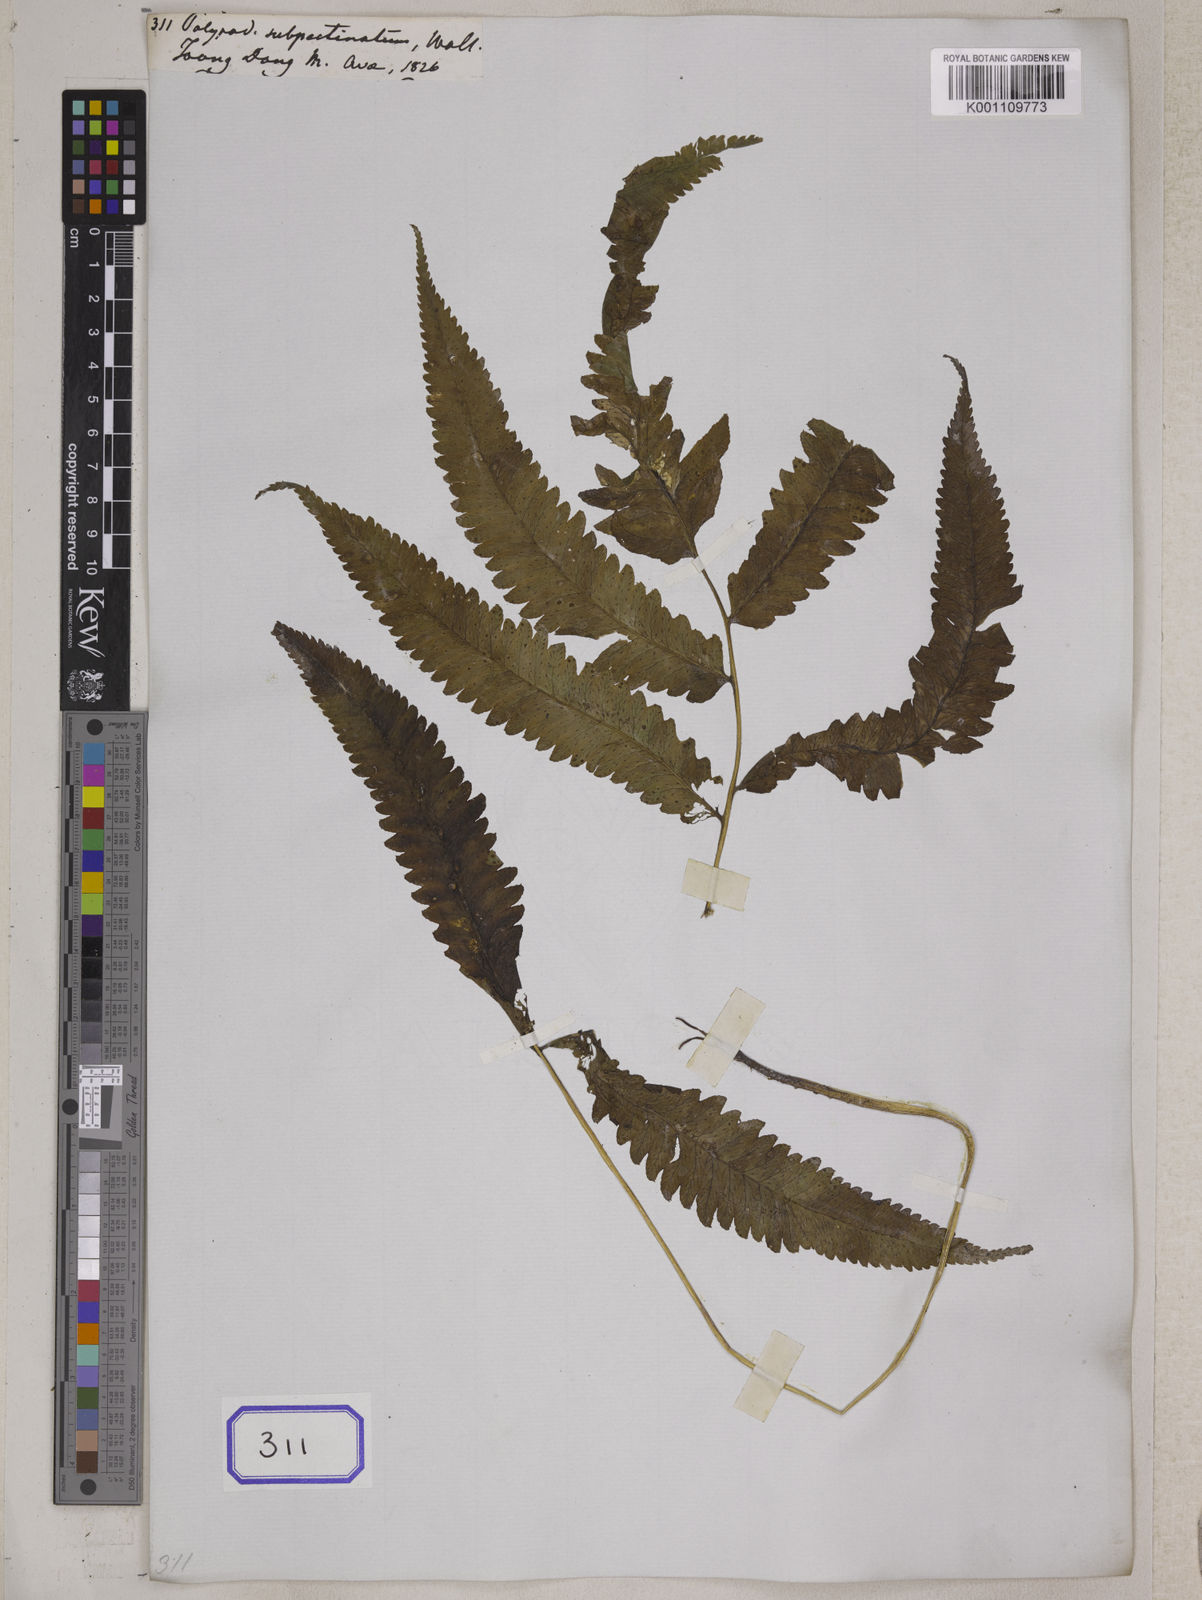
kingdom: Plantae
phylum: Tracheophyta
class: Polypodiopsida
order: Polypodiales
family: Athyriaceae
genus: Anisocampium
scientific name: Anisocampium cumingianum
